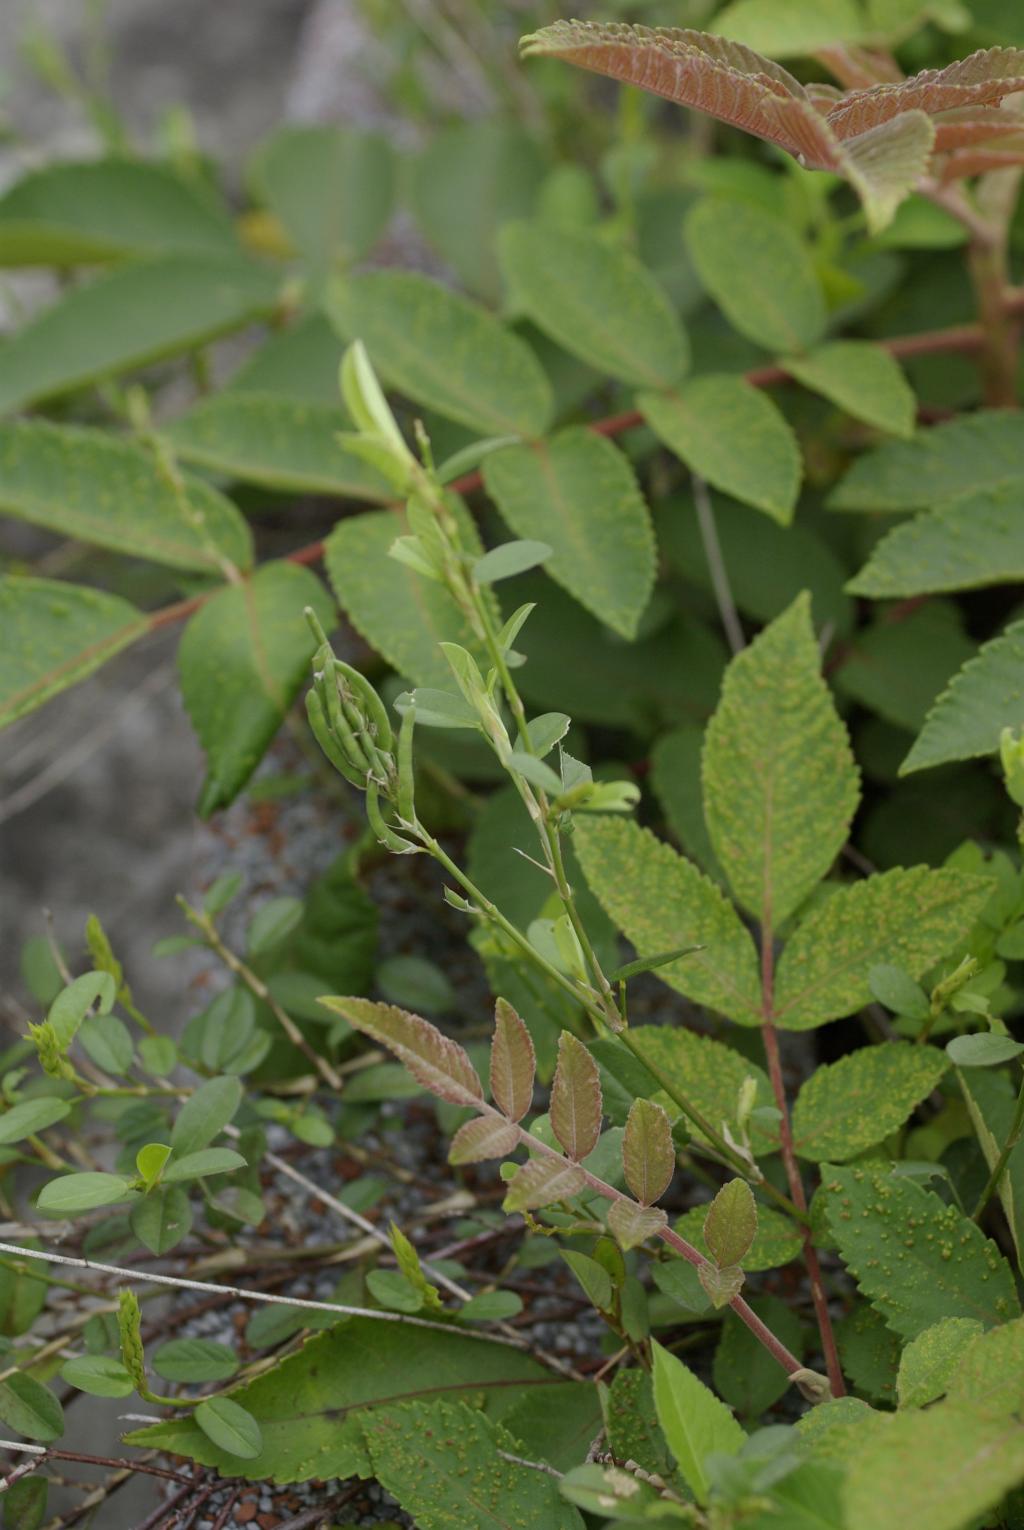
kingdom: Plantae
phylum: Tracheophyta
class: Magnoliopsida
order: Fabales
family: Fabaceae
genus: Alysicarpus
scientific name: Alysicarpus vaginalis
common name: White moneywort
